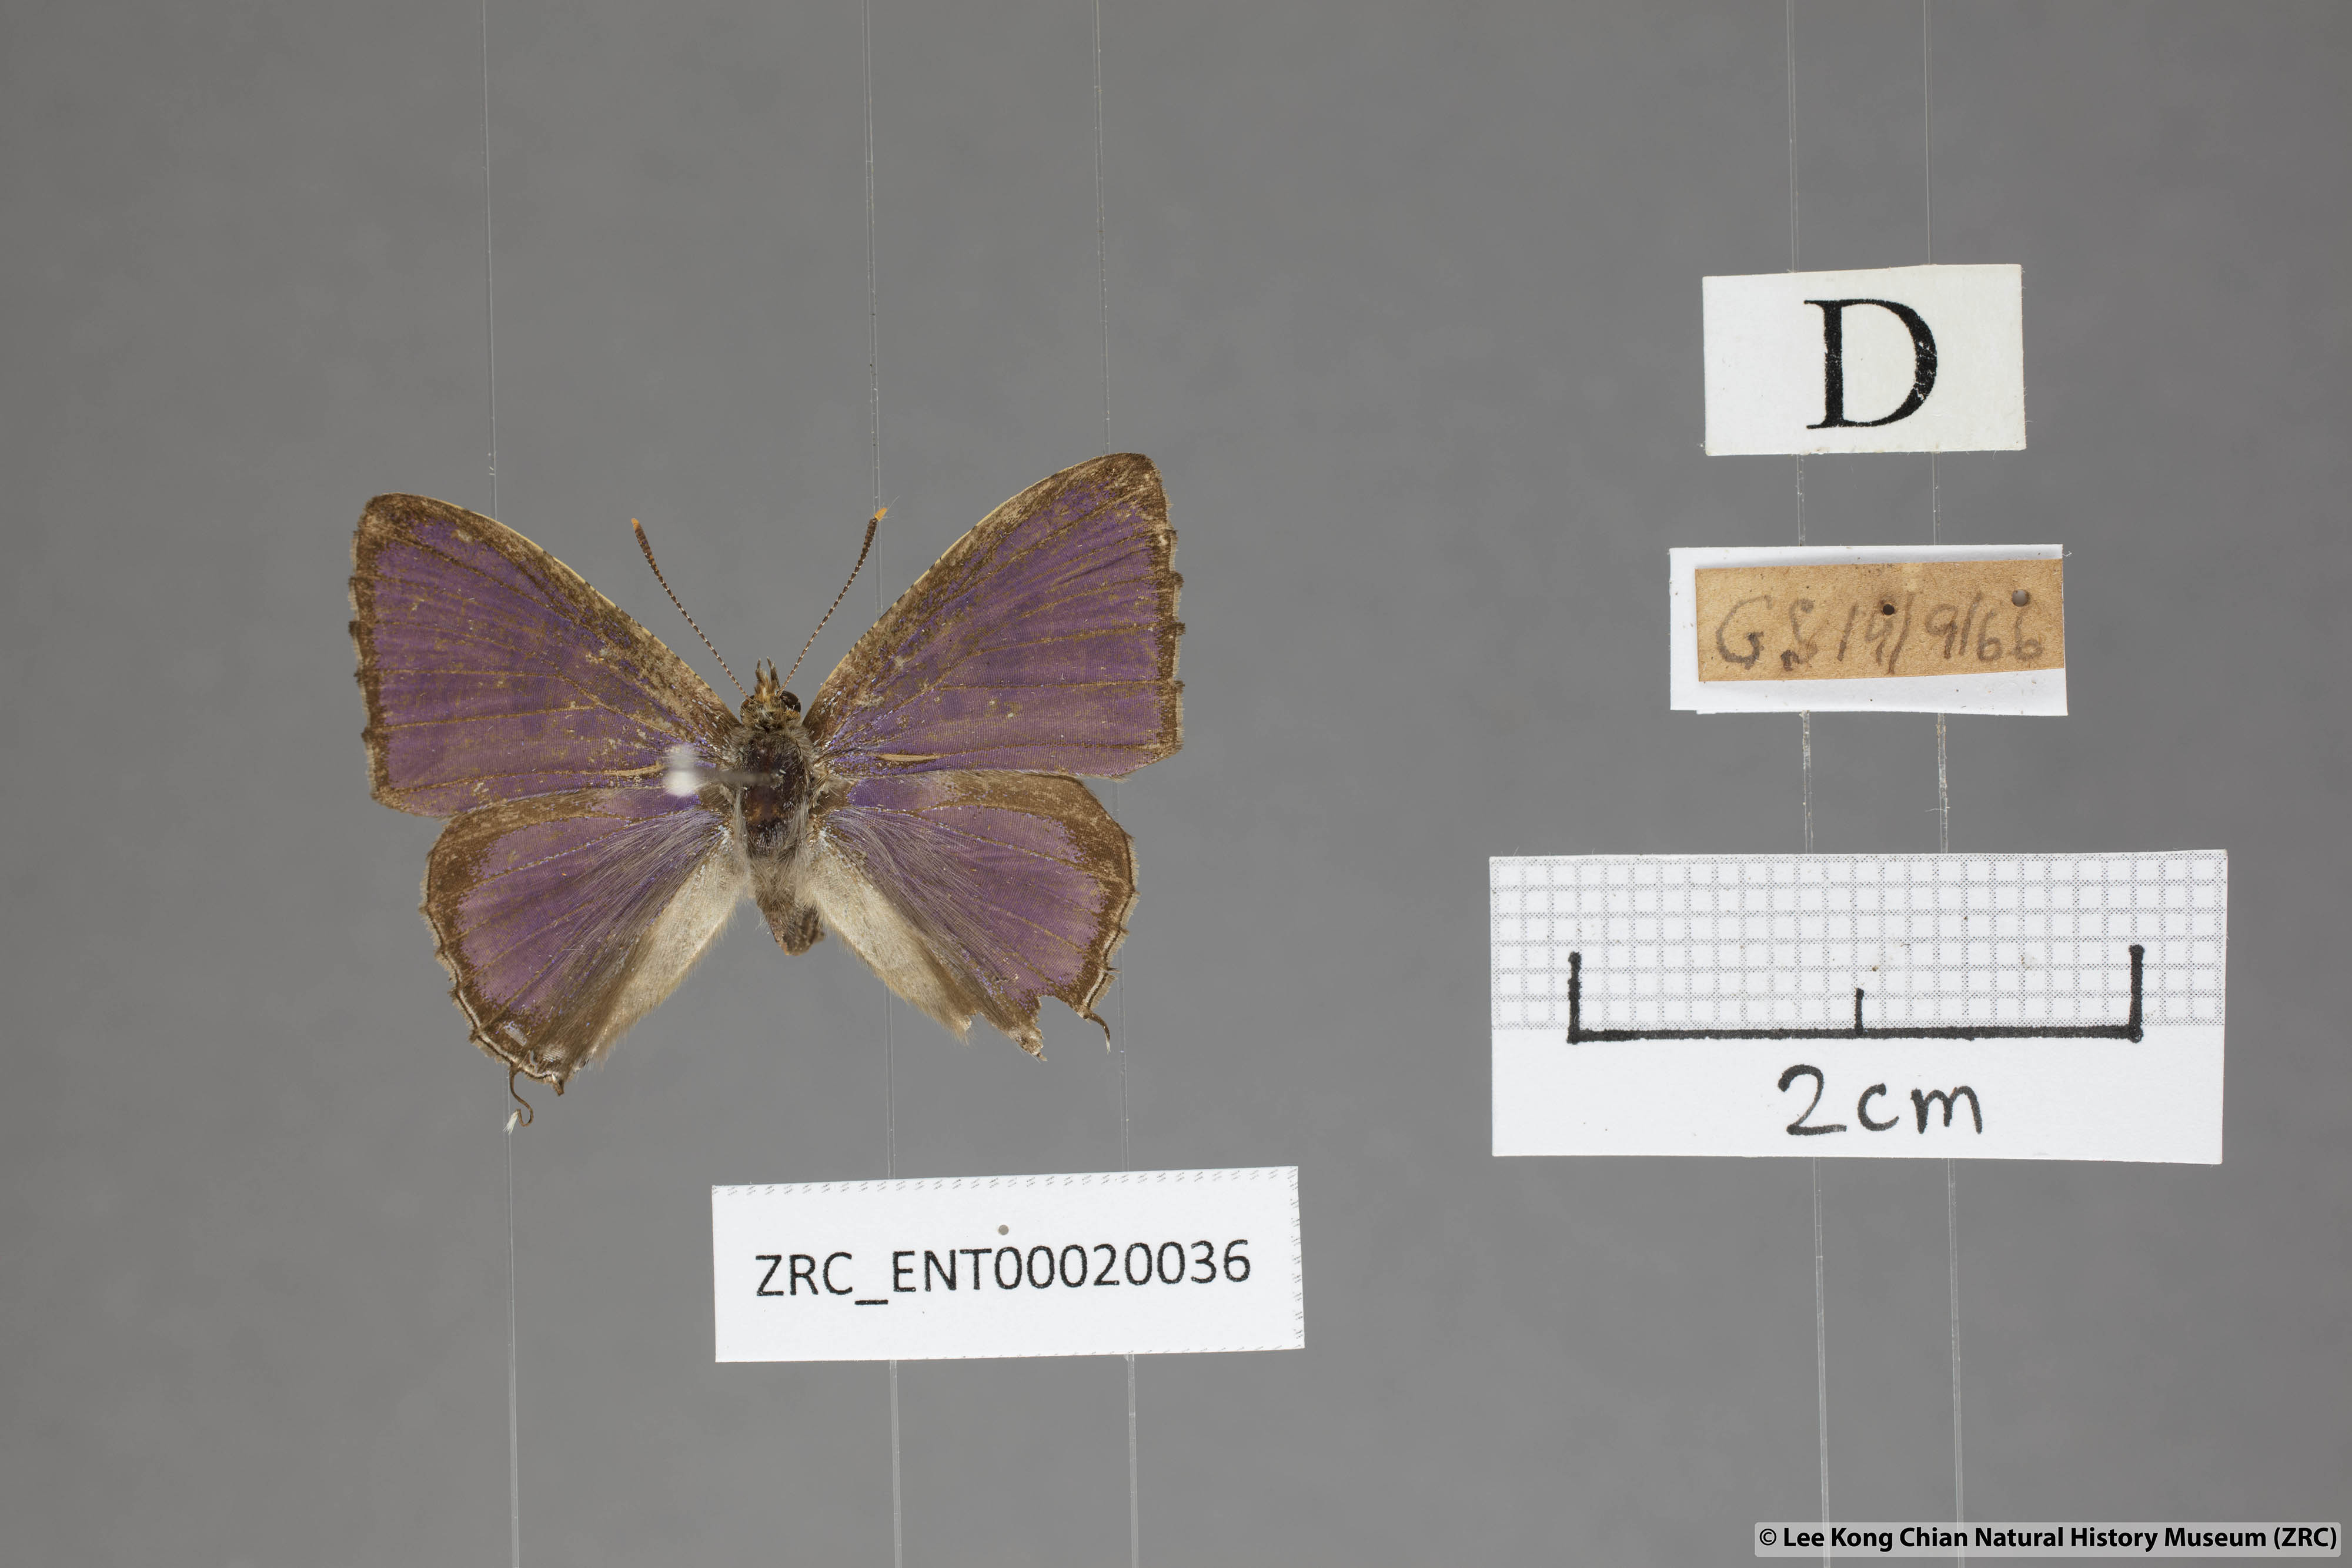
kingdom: Animalia
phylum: Arthropoda
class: Insecta
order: Lepidoptera
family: Lycaenidae
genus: Catapaecilma
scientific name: Catapaecilma major
